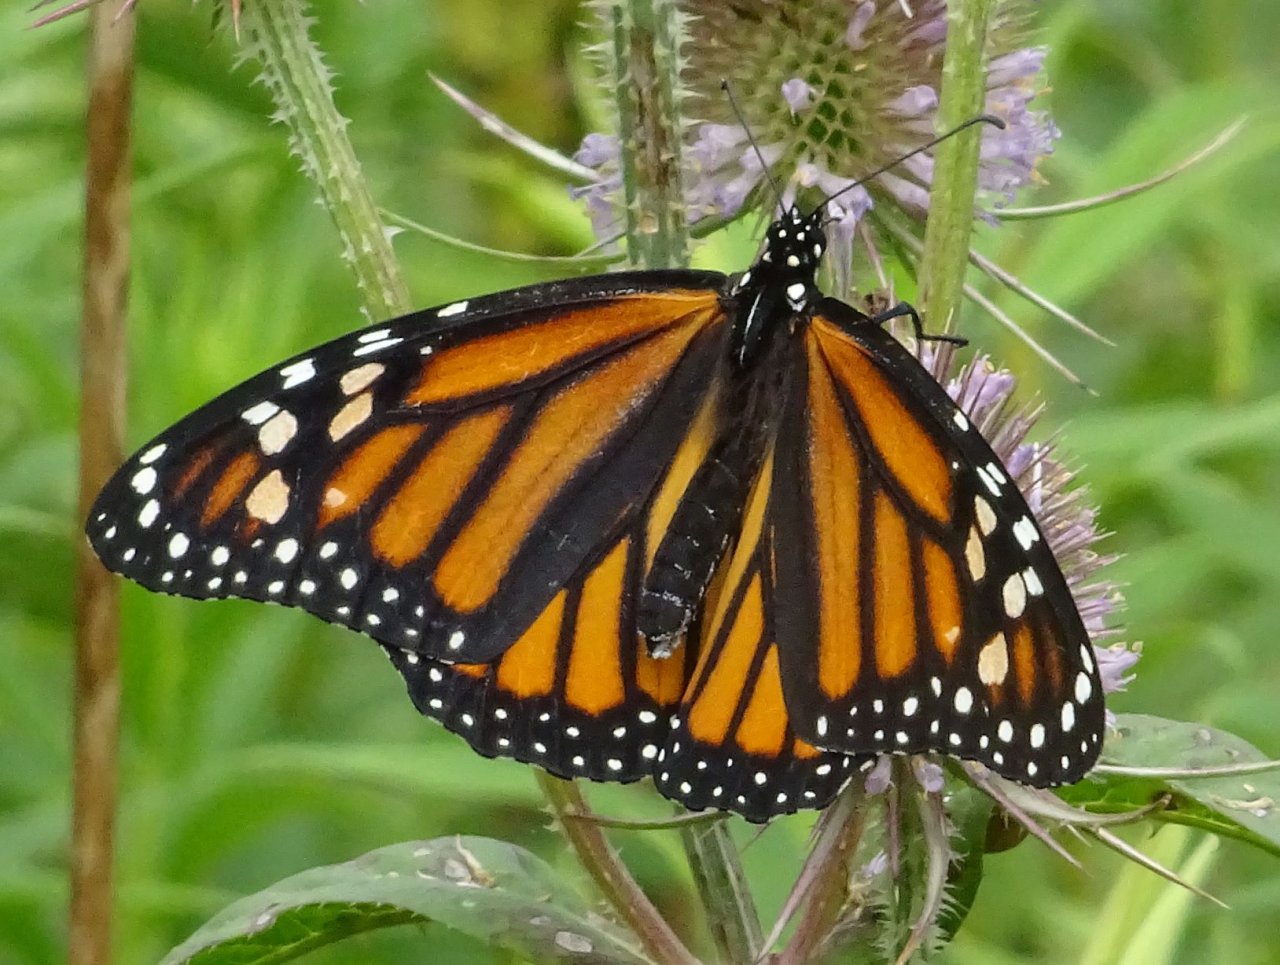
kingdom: Animalia
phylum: Arthropoda
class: Insecta
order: Lepidoptera
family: Nymphalidae
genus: Danaus
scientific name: Danaus plexippus
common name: Monarch
